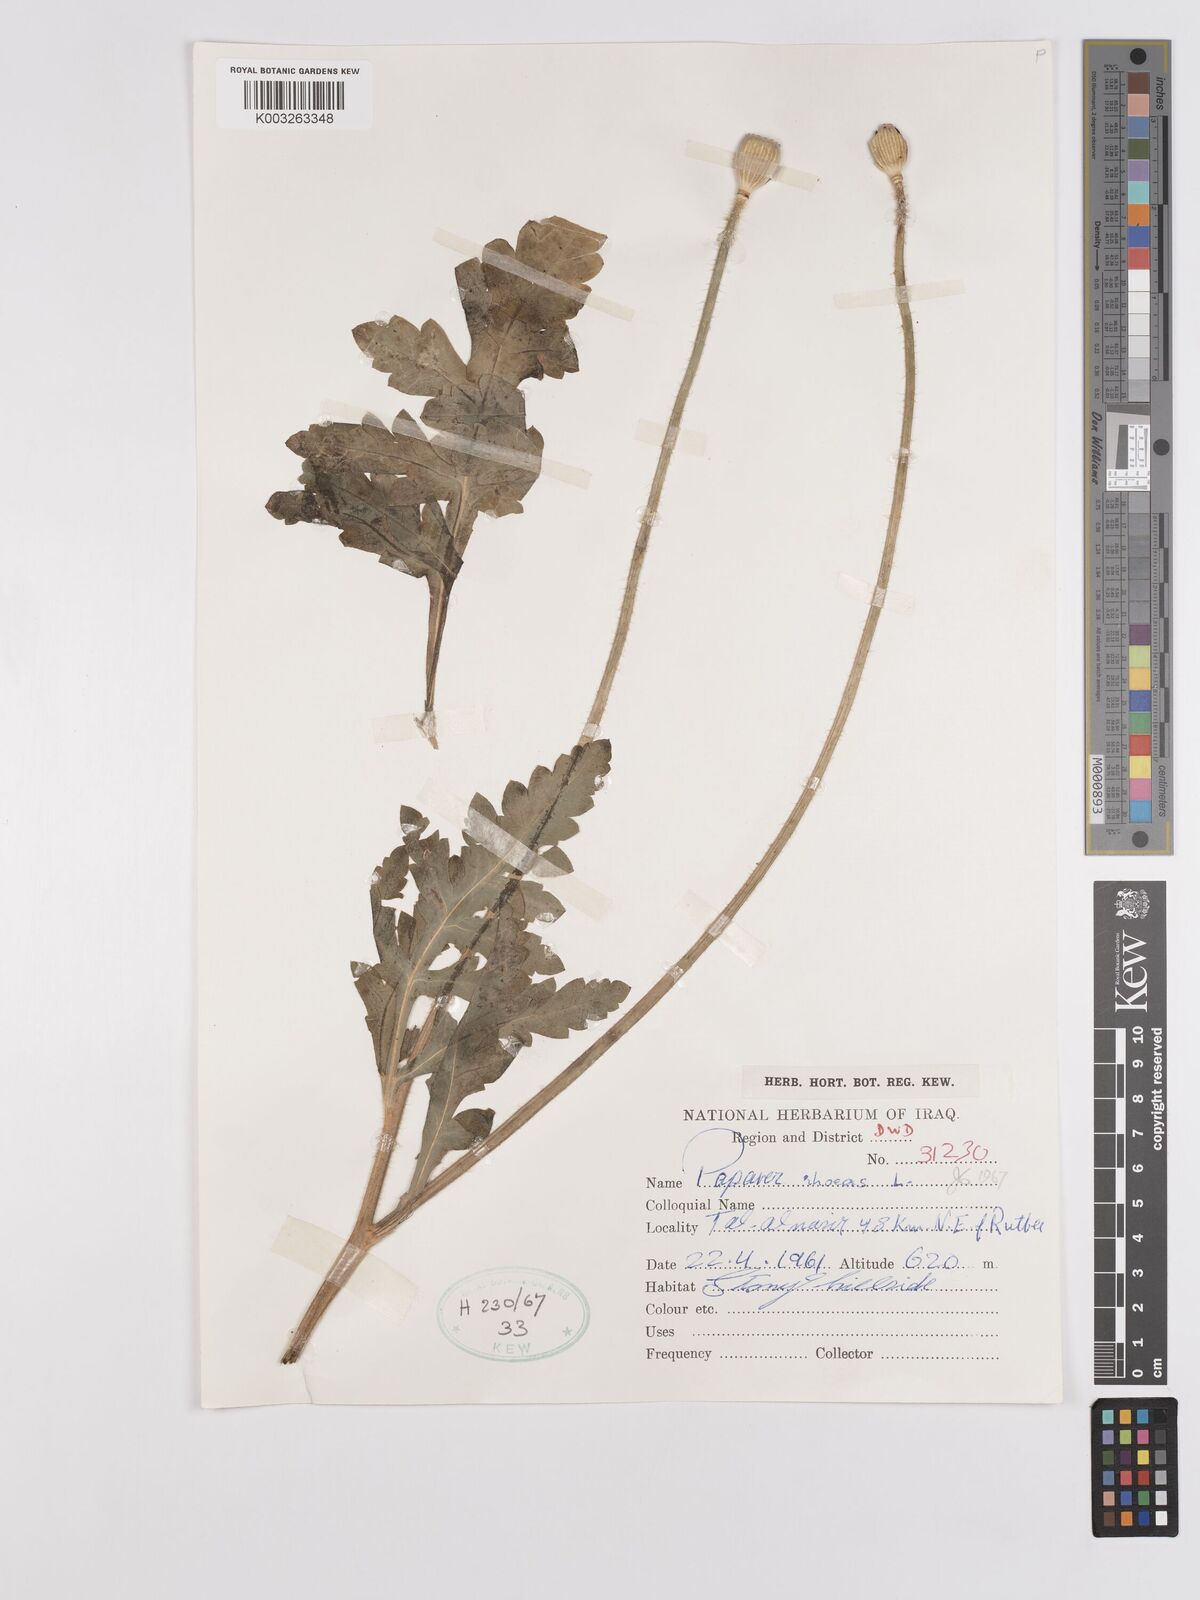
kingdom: Plantae
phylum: Tracheophyta
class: Magnoliopsida
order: Ranunculales
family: Papaveraceae
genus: Papaver
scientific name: Papaver rhoeas
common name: Corn poppy
